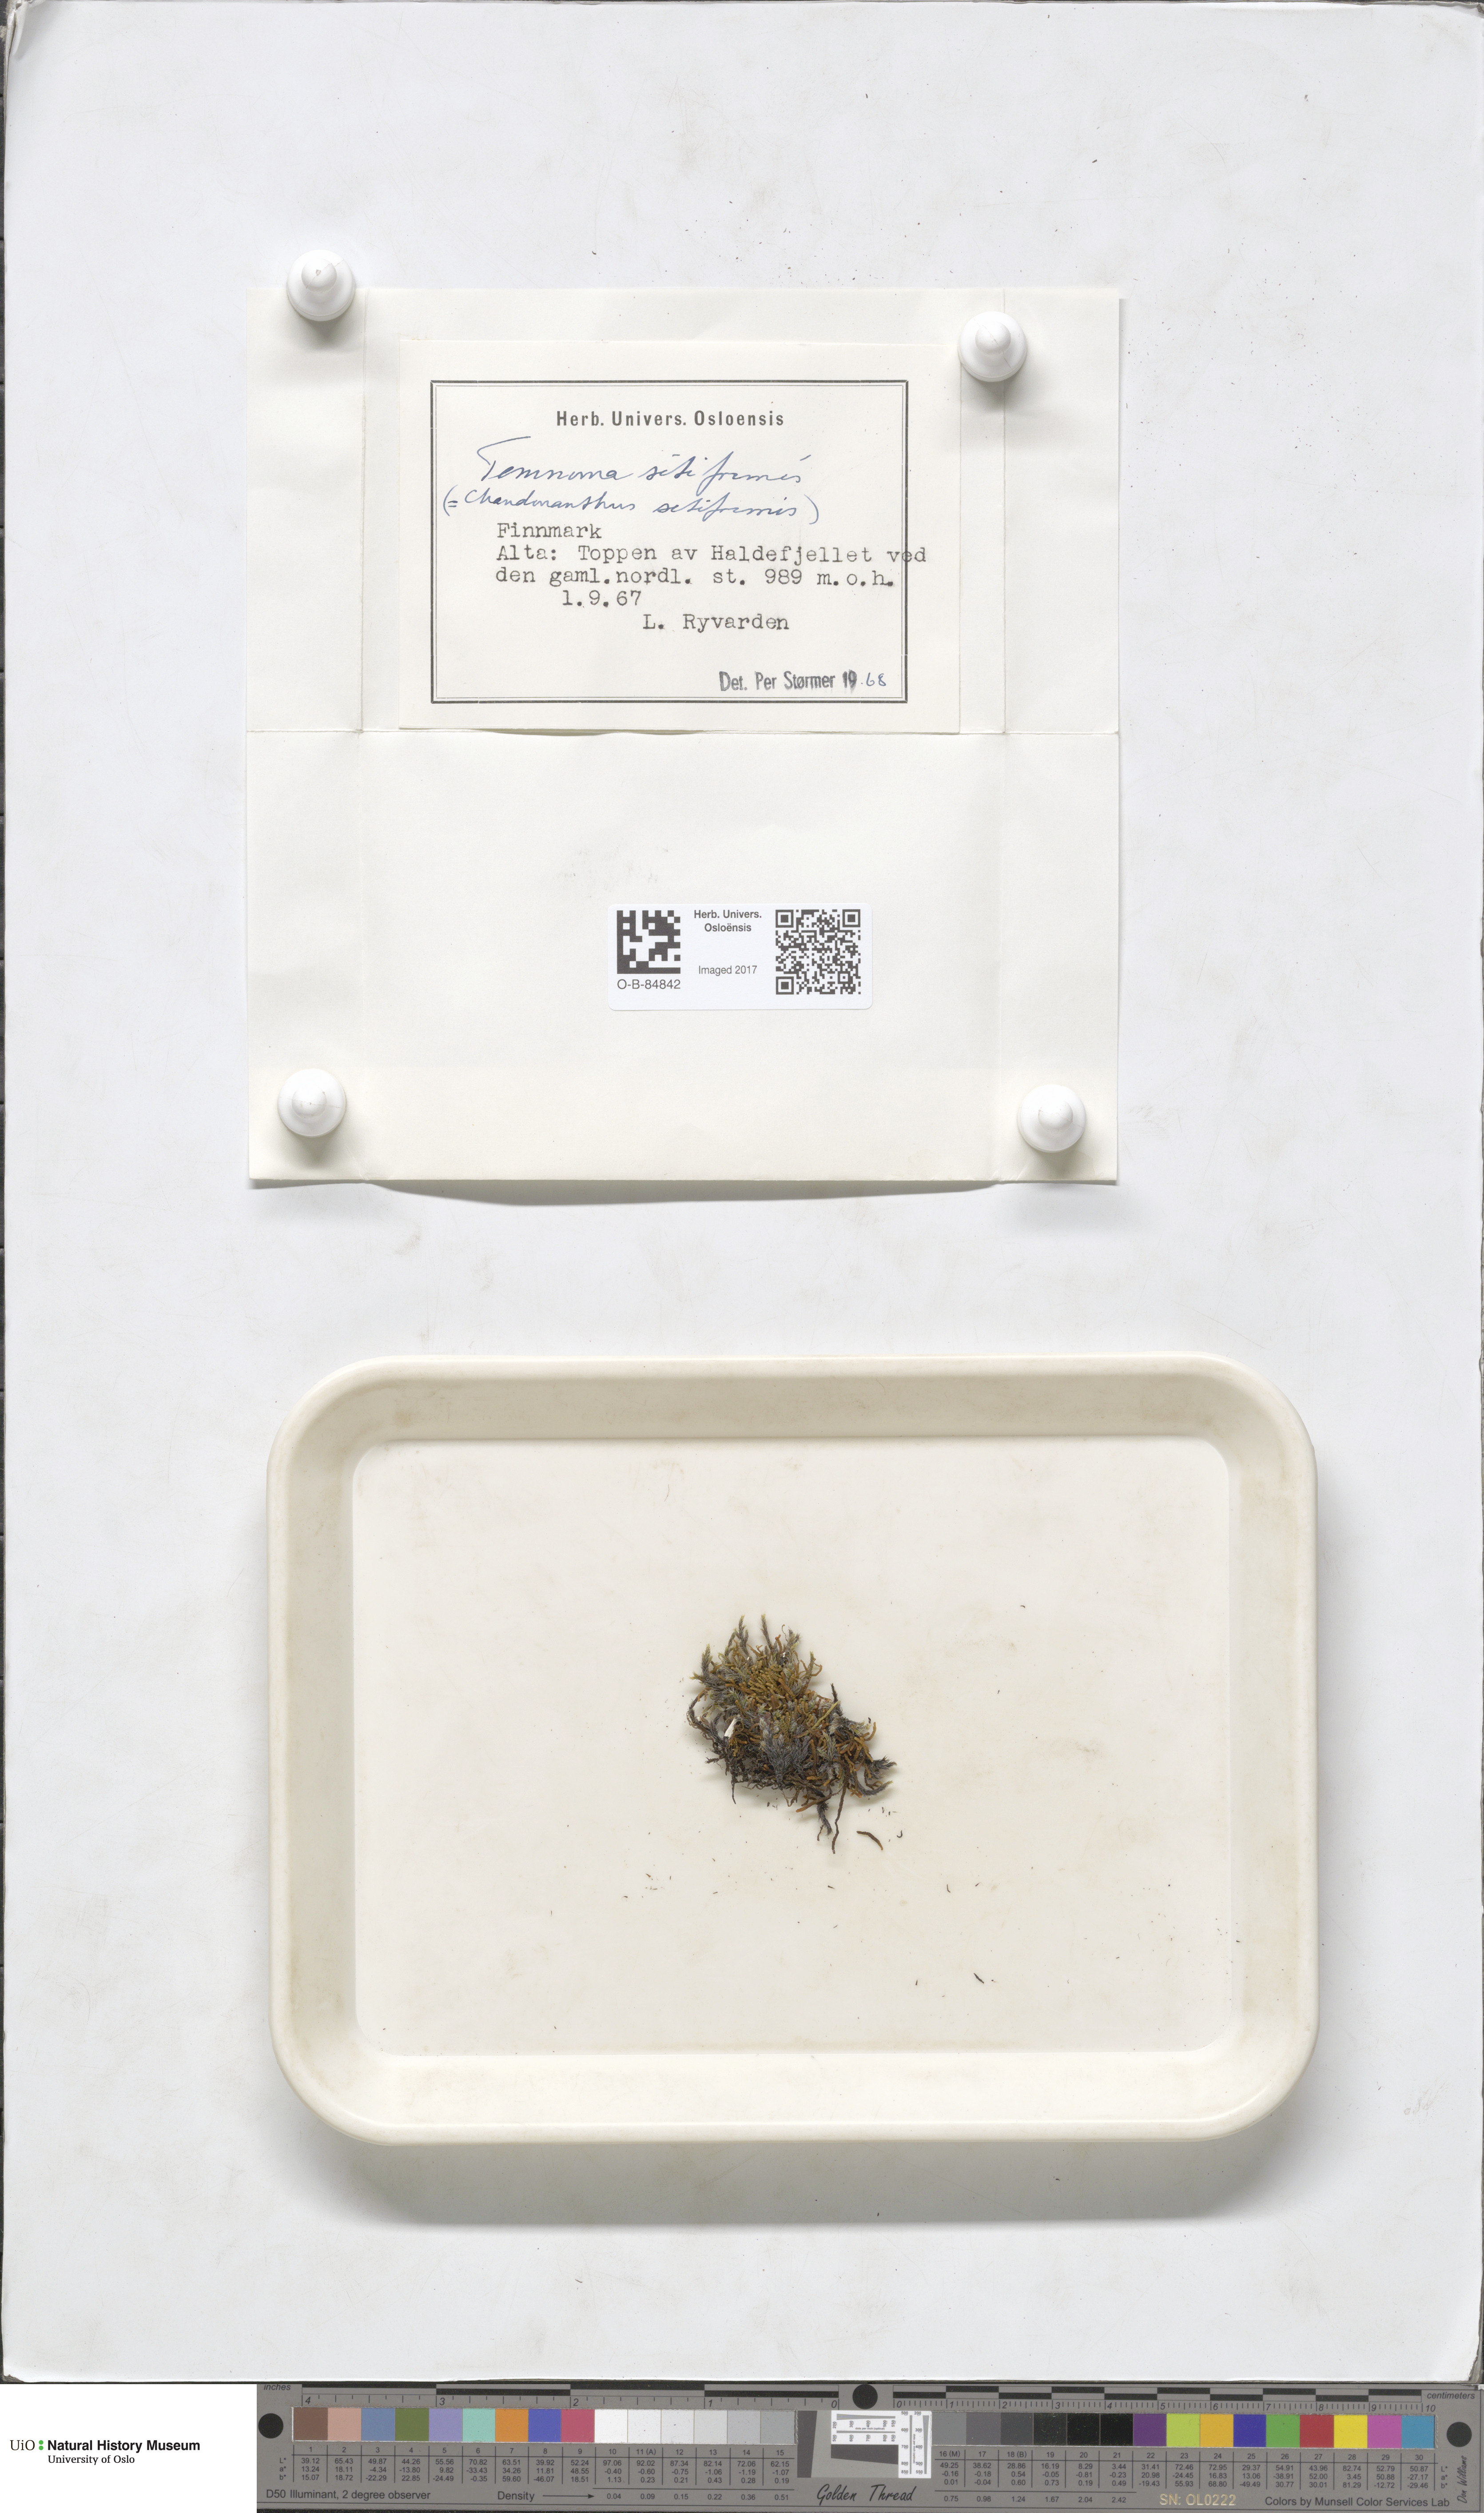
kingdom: Plantae
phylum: Marchantiophyta
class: Jungermanniopsida
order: Jungermanniales
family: Anastrophyllaceae
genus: Tetralophozia
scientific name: Tetralophozia setiformis
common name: Monster pawwort
